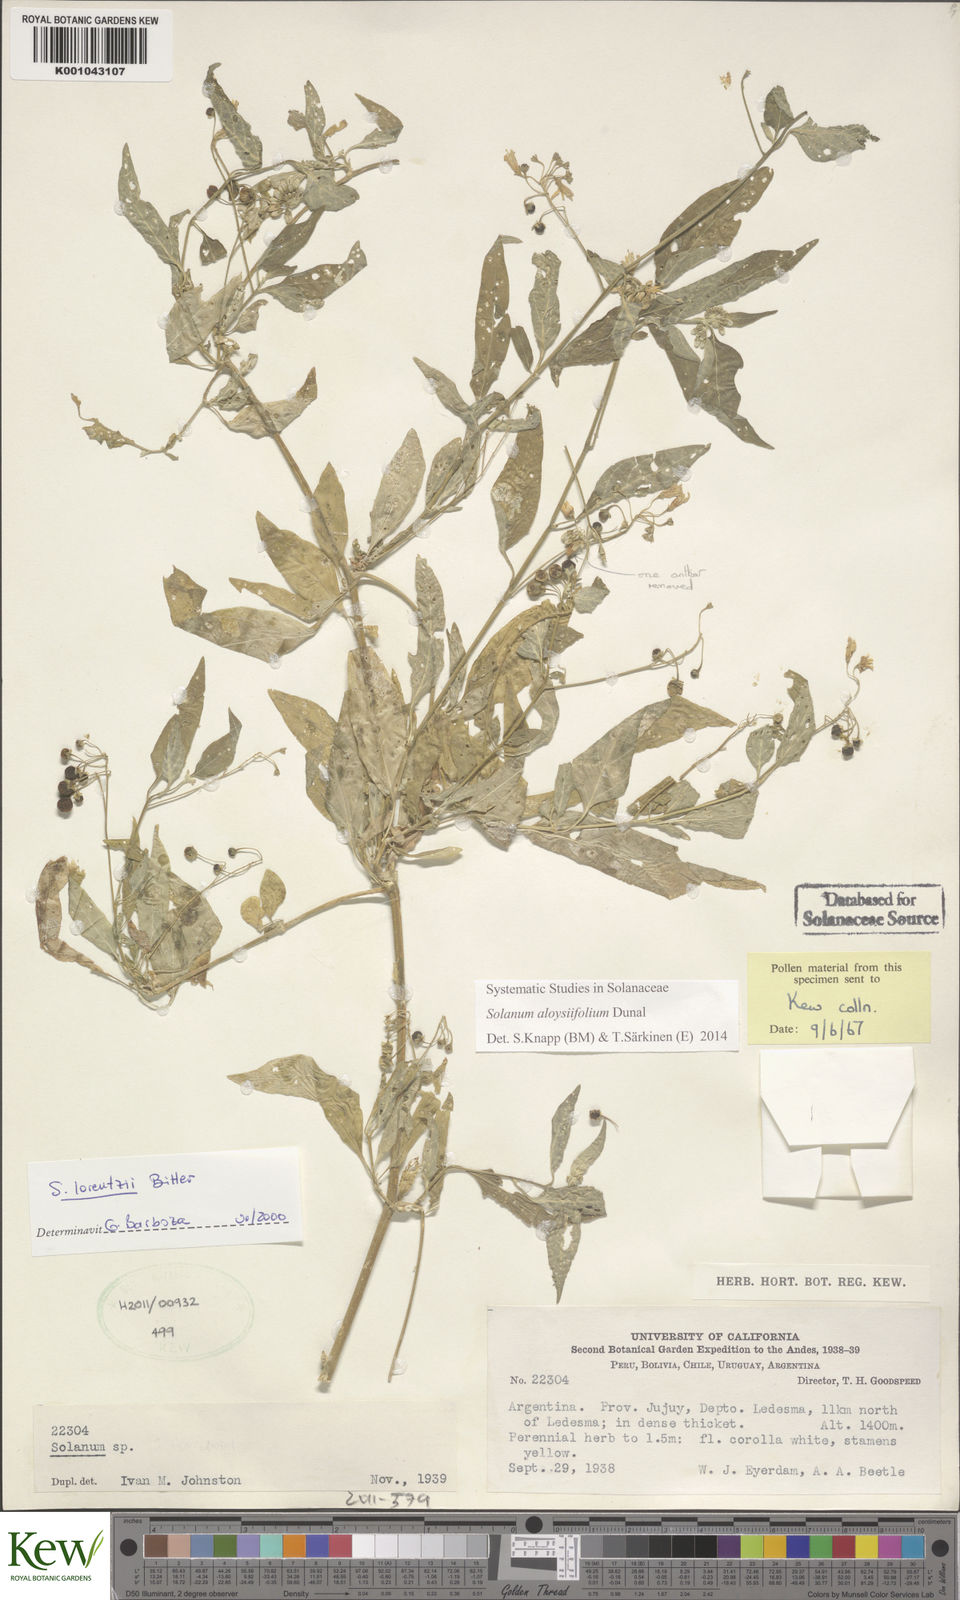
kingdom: Plantae
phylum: Tracheophyta
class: Magnoliopsida
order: Solanales
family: Solanaceae
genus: Solanum
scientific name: Solanum aloysiifolium
